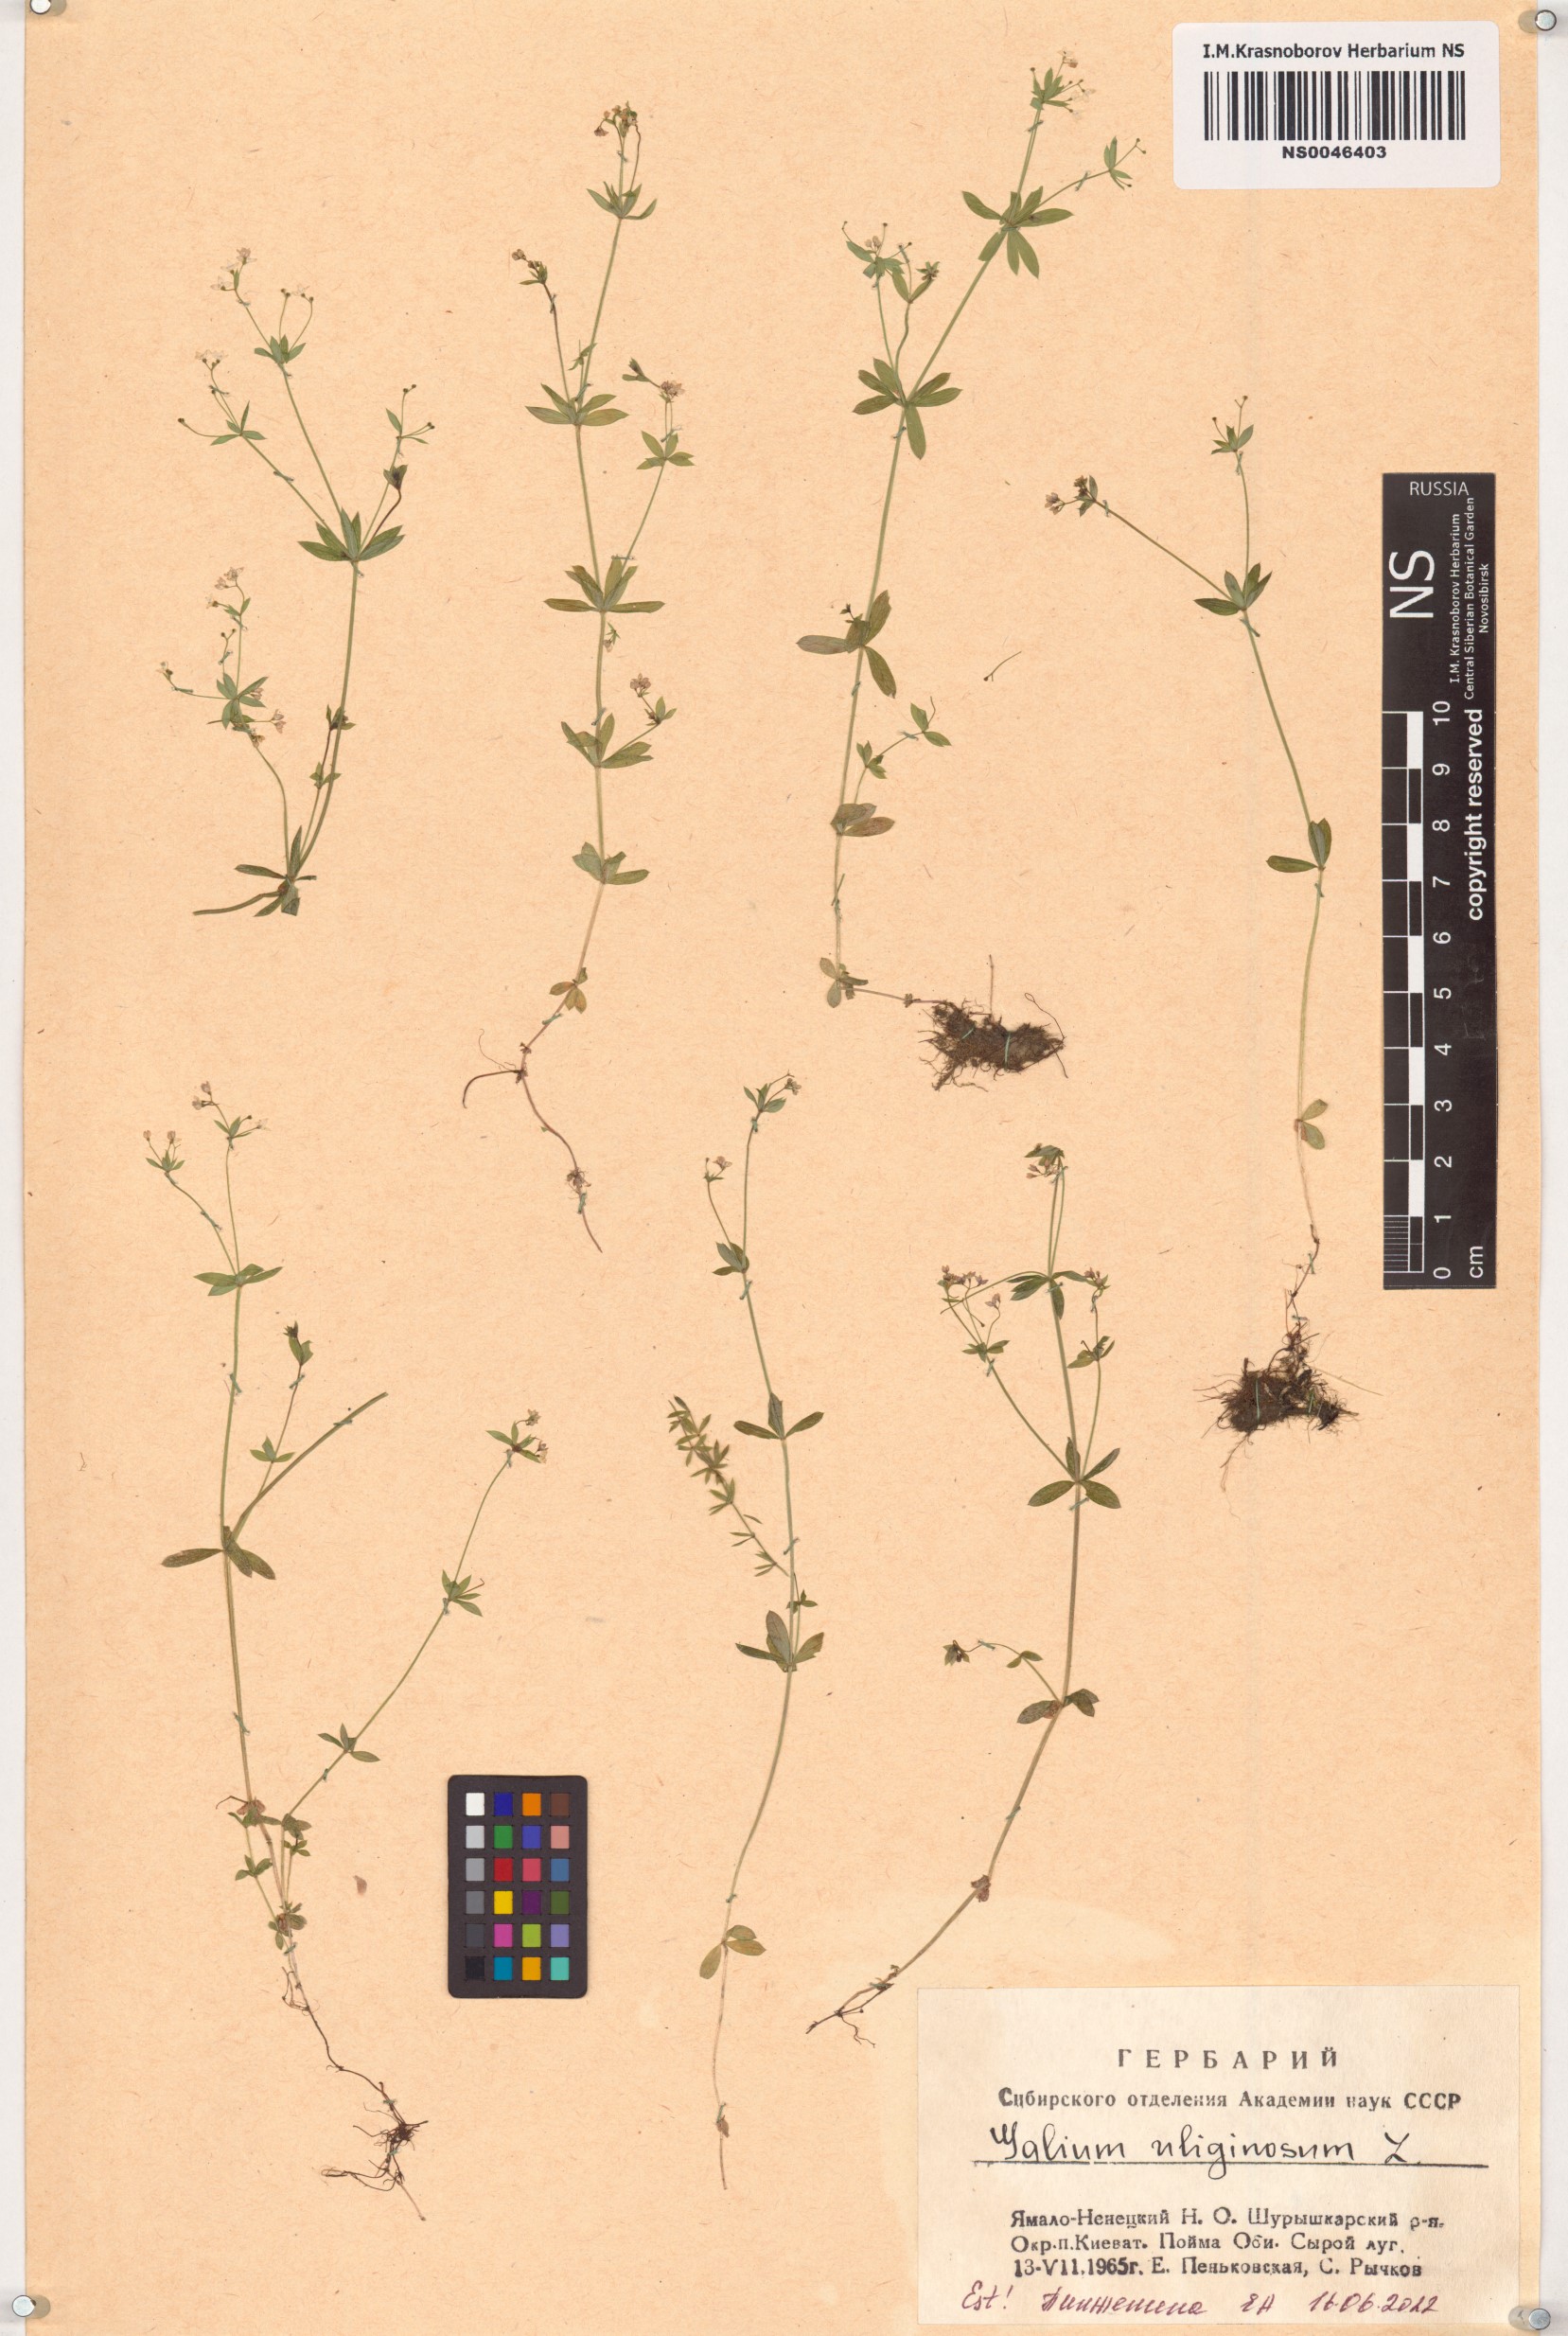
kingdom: Plantae
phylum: Tracheophyta
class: Magnoliopsida
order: Gentianales
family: Rubiaceae
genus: Galium
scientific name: Galium uliginosum
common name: Fen bedstraw
